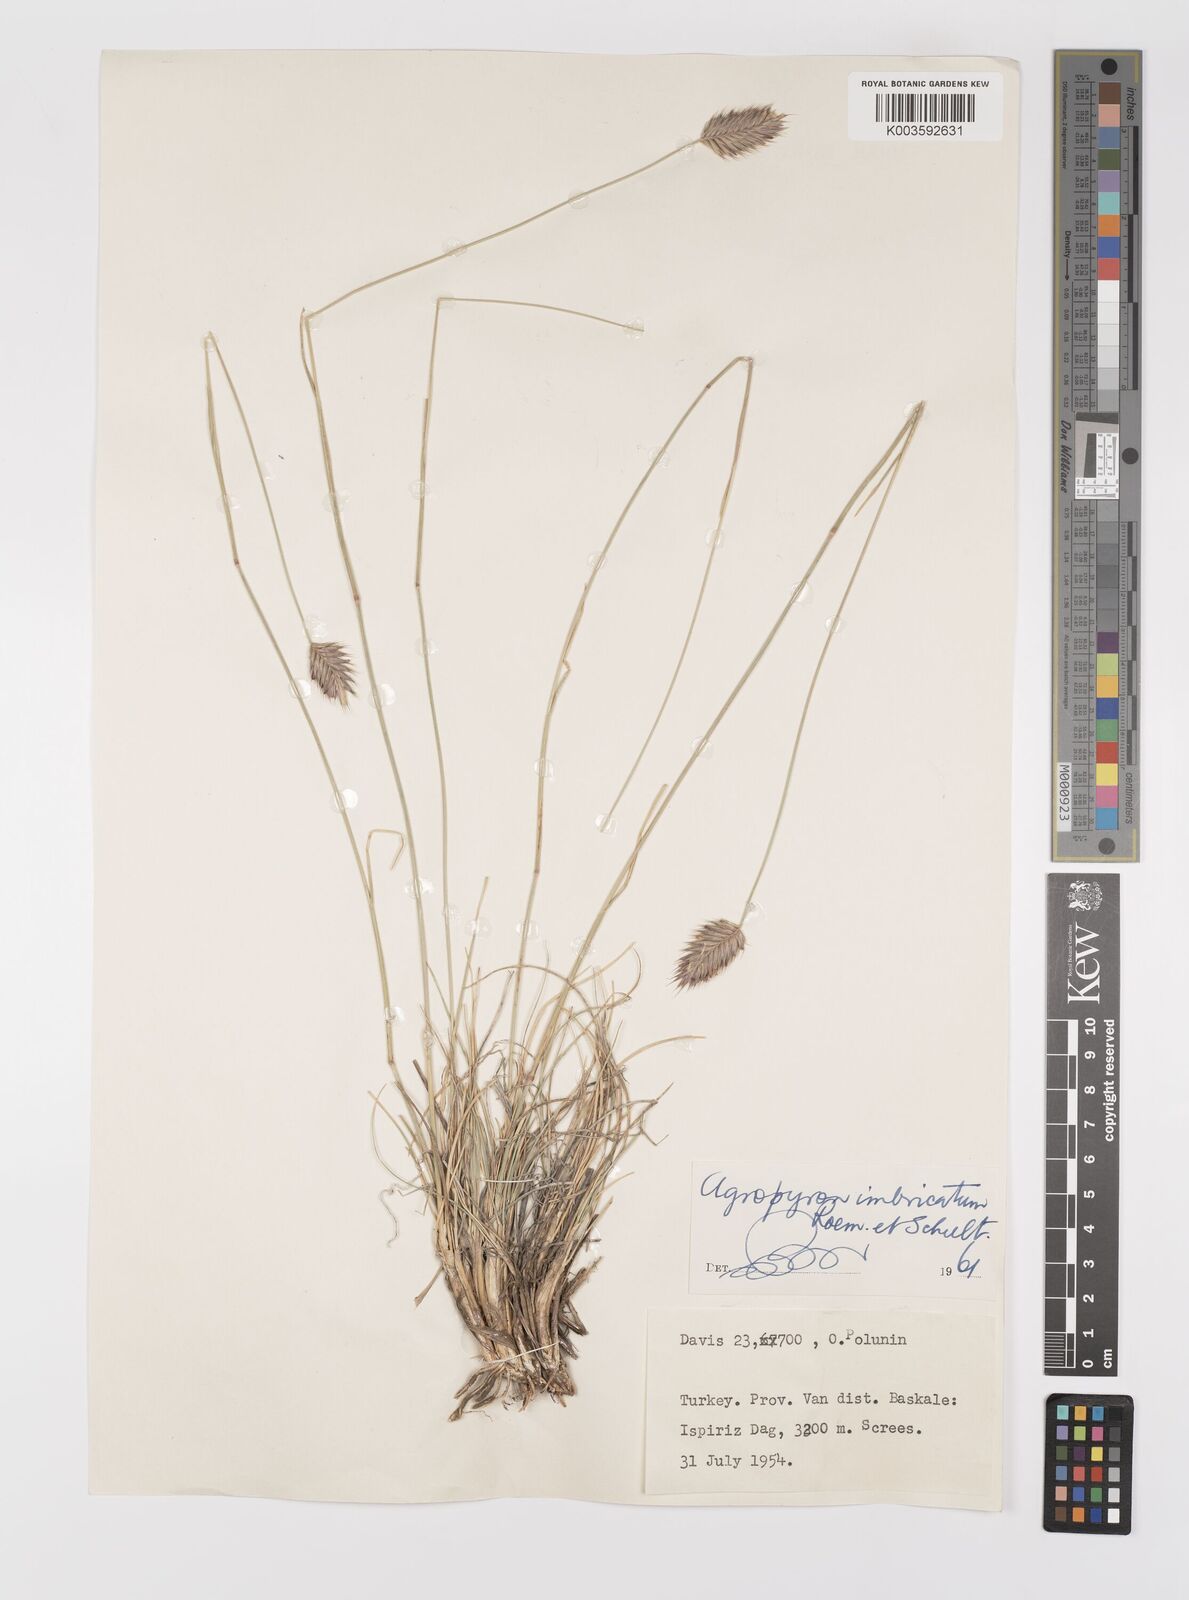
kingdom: Plantae
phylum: Tracheophyta
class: Liliopsida
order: Poales
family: Poaceae
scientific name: Poaceae
